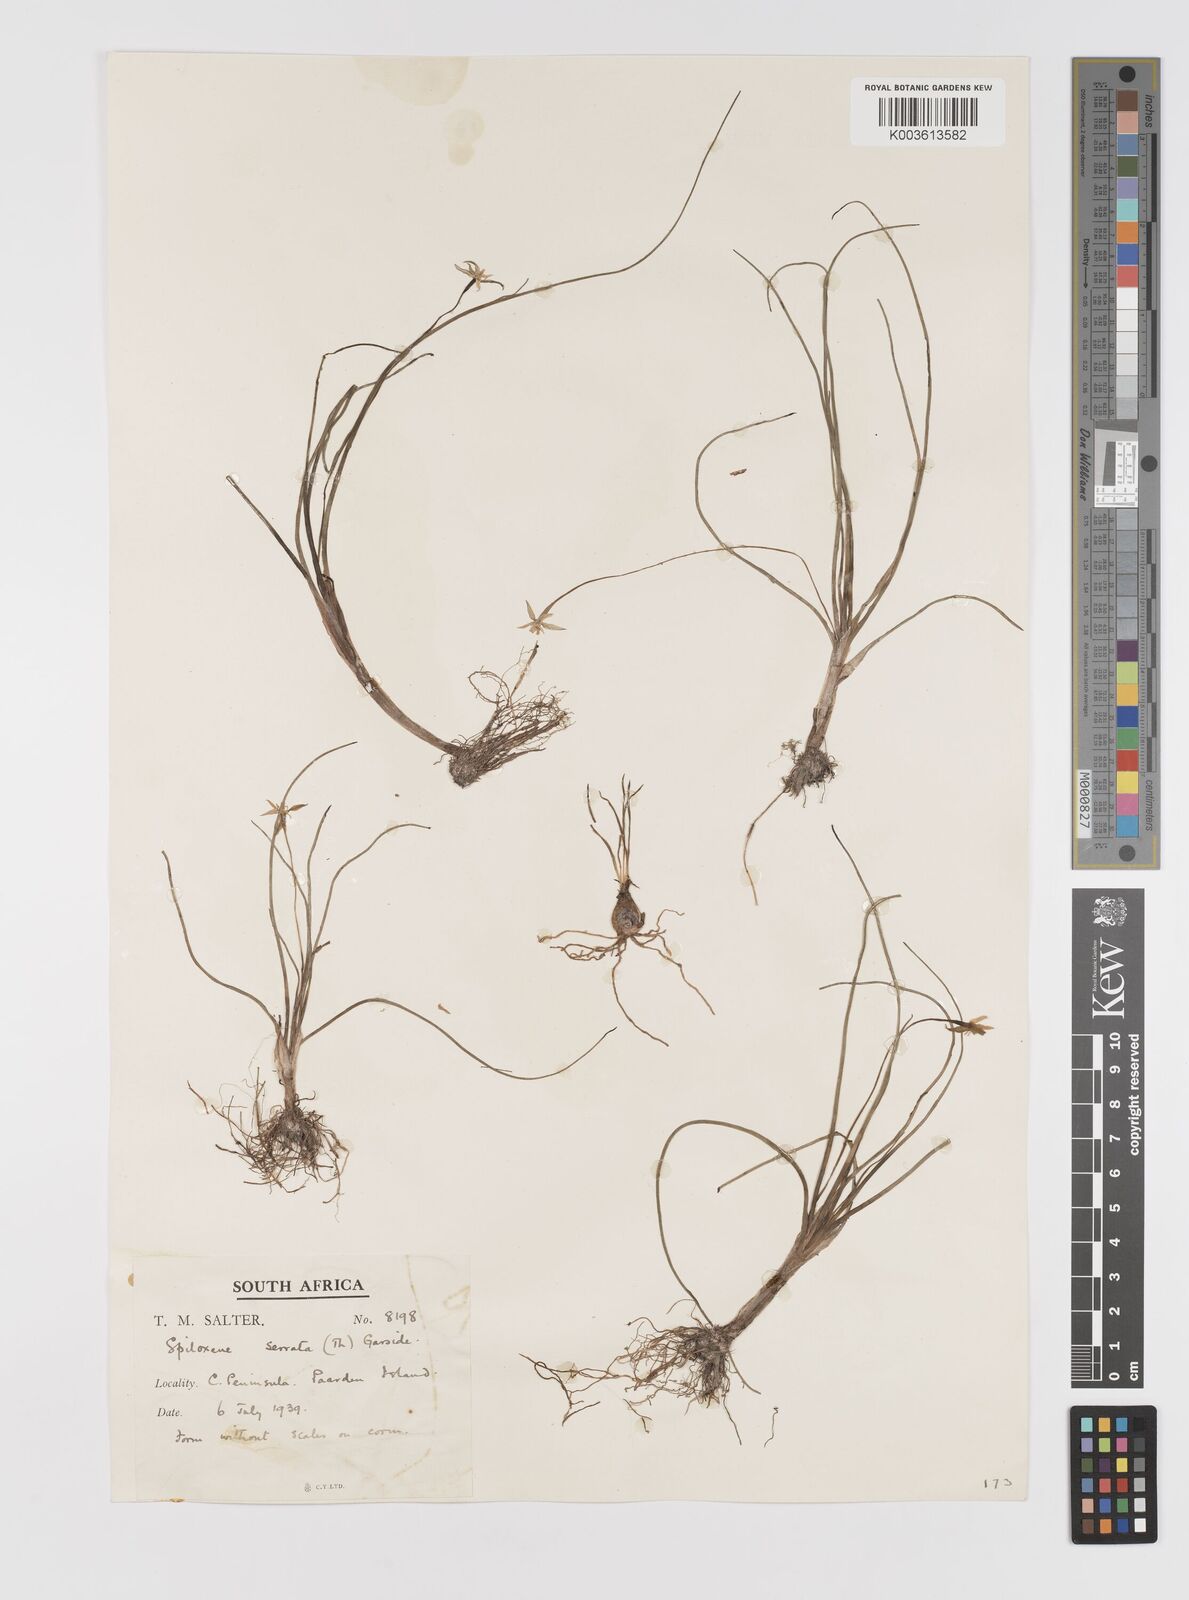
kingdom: Plantae
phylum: Tracheophyta
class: Liliopsida
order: Asparagales
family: Hypoxidaceae
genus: Pauridia
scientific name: Pauridia serrata
